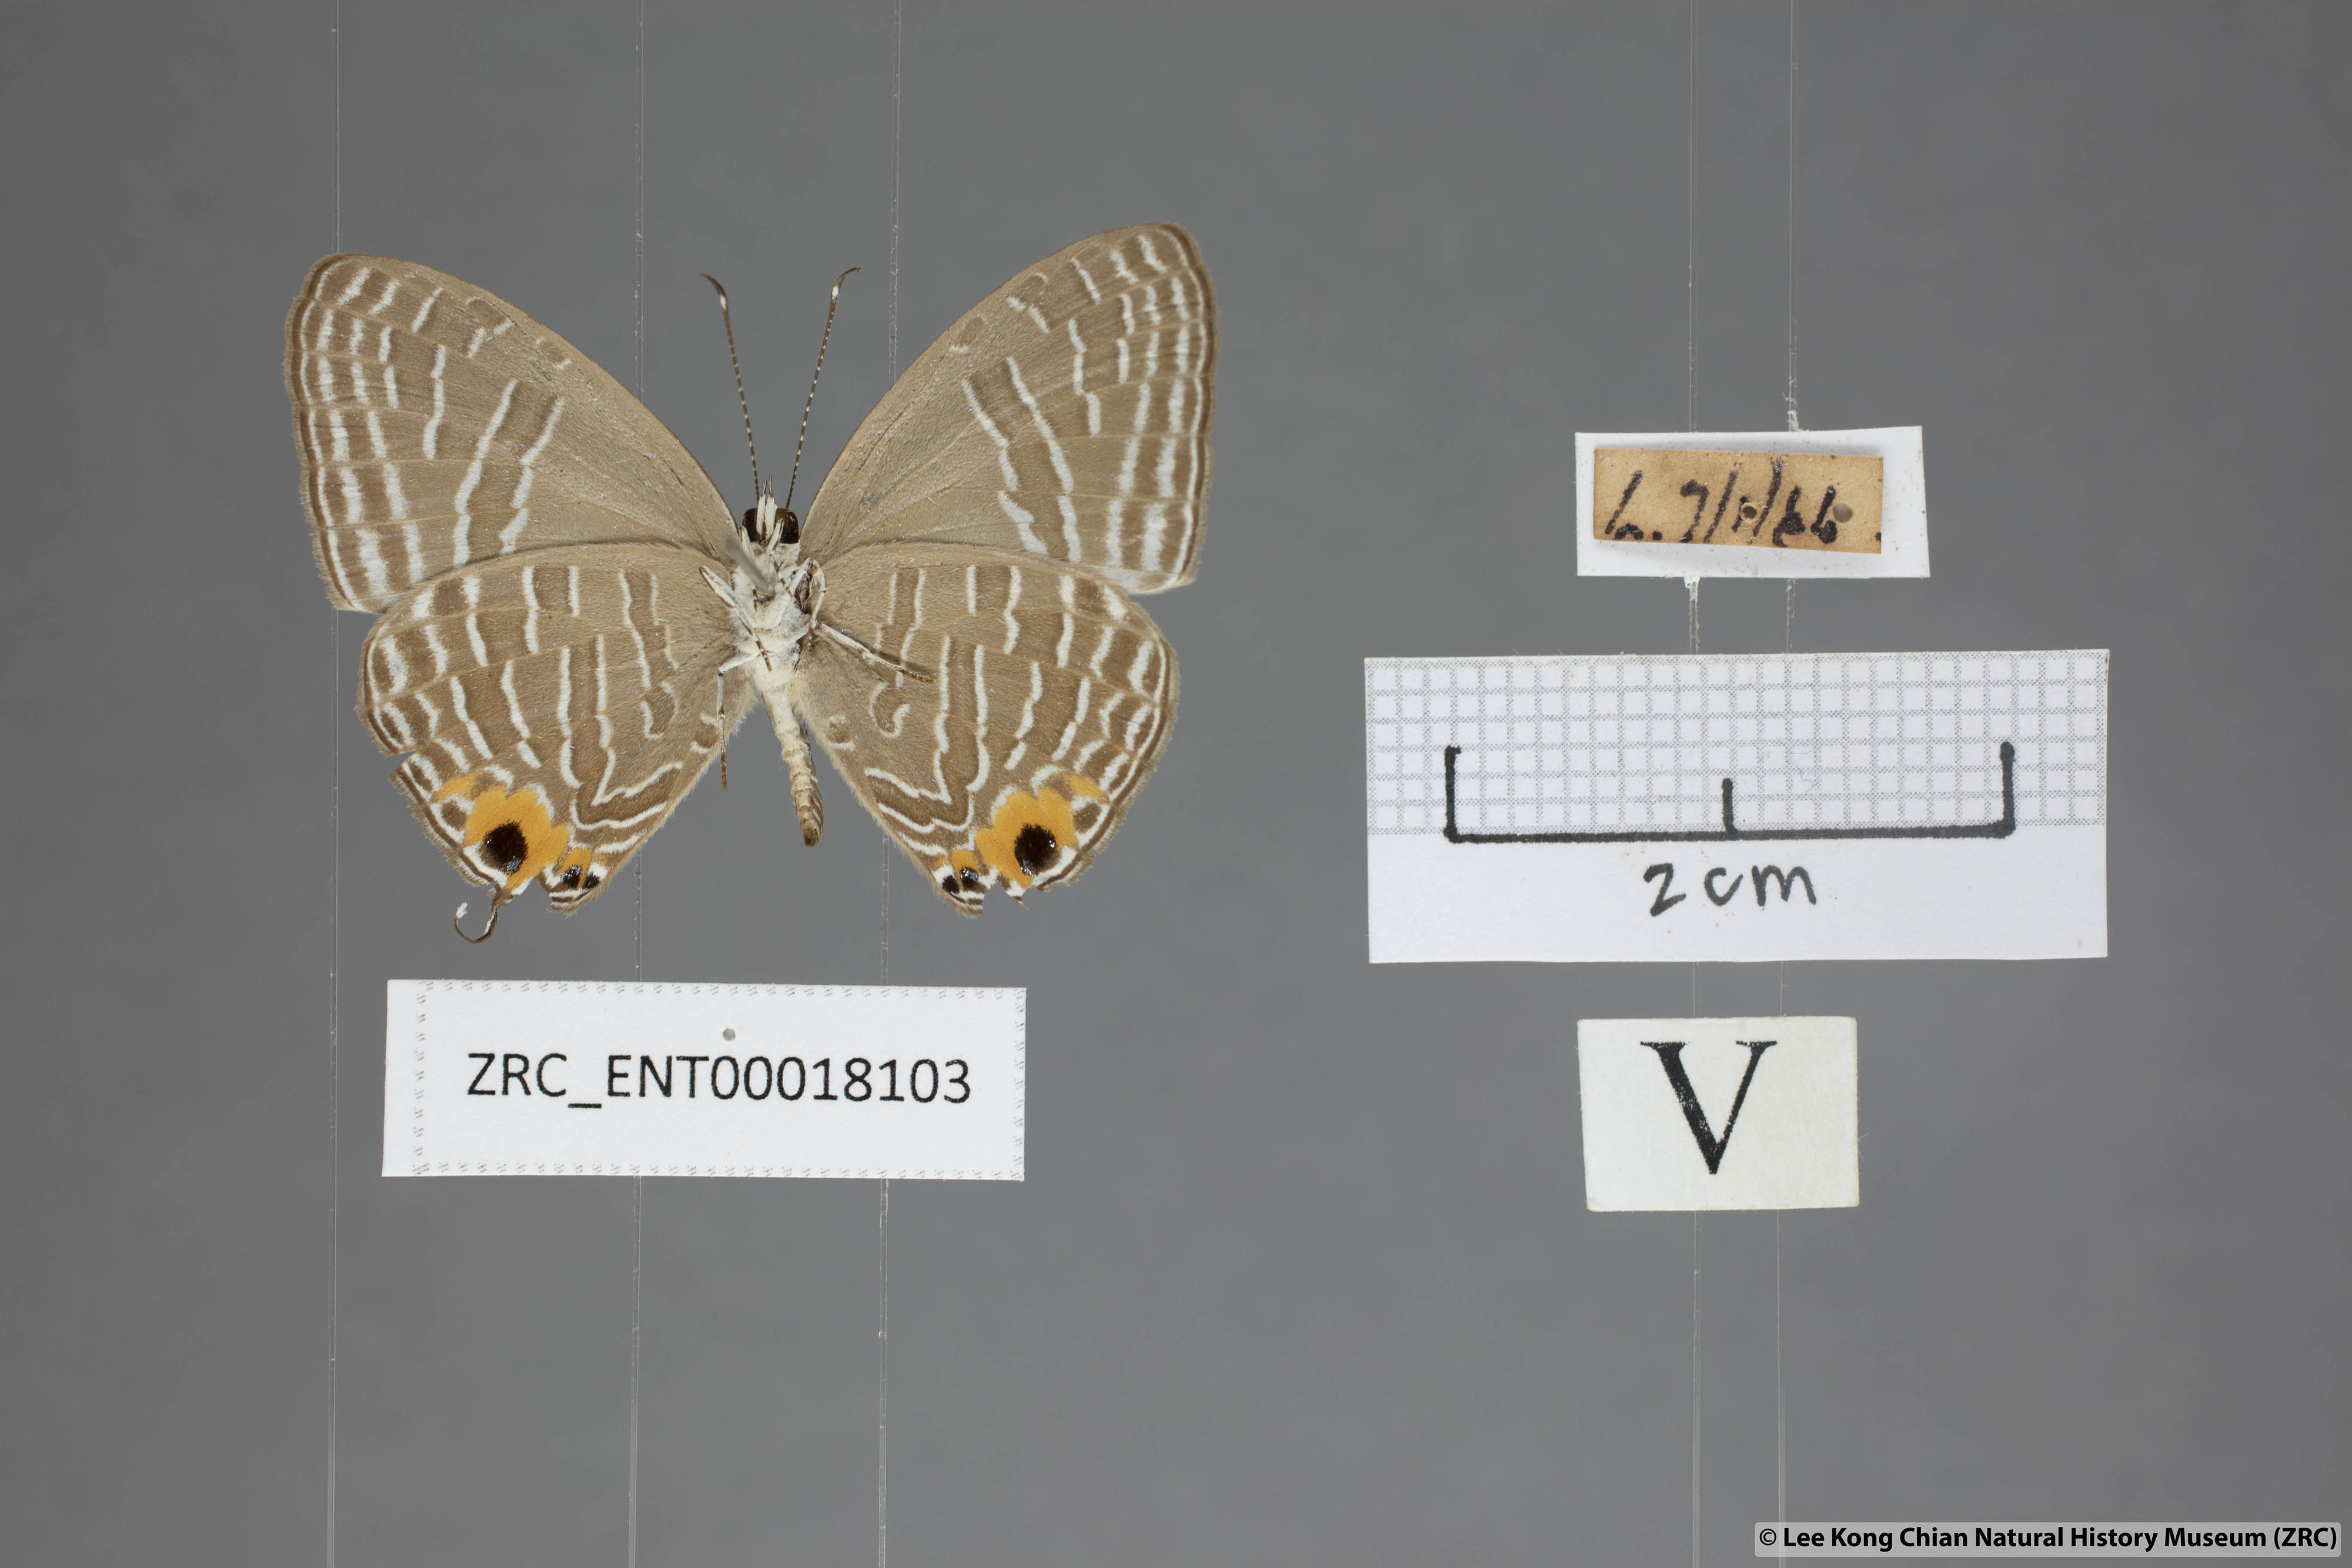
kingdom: Animalia
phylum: Arthropoda
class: Insecta
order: Lepidoptera
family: Lycaenidae
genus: Jamides
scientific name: Jamides
